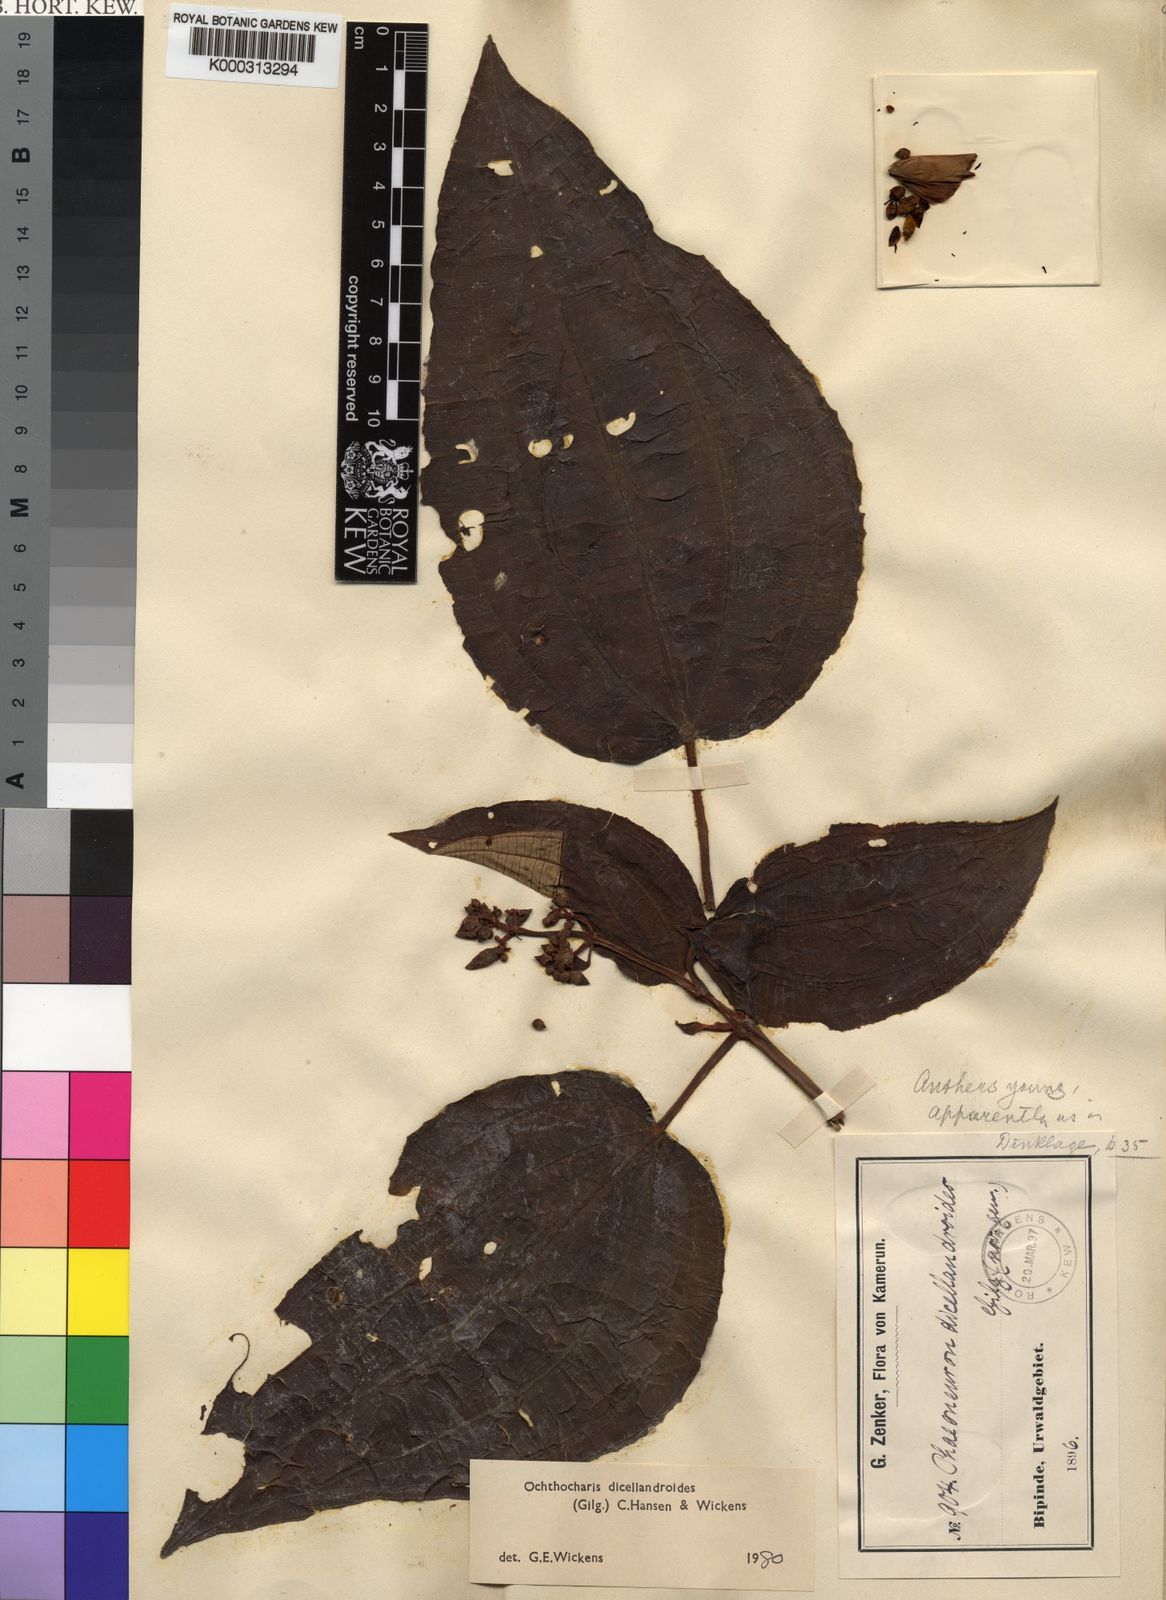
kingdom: Plantae
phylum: Tracheophyta
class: Magnoliopsida
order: Myrtales
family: Melastomataceae
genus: Ochthocharis
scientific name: Ochthocharis dicellandroides
